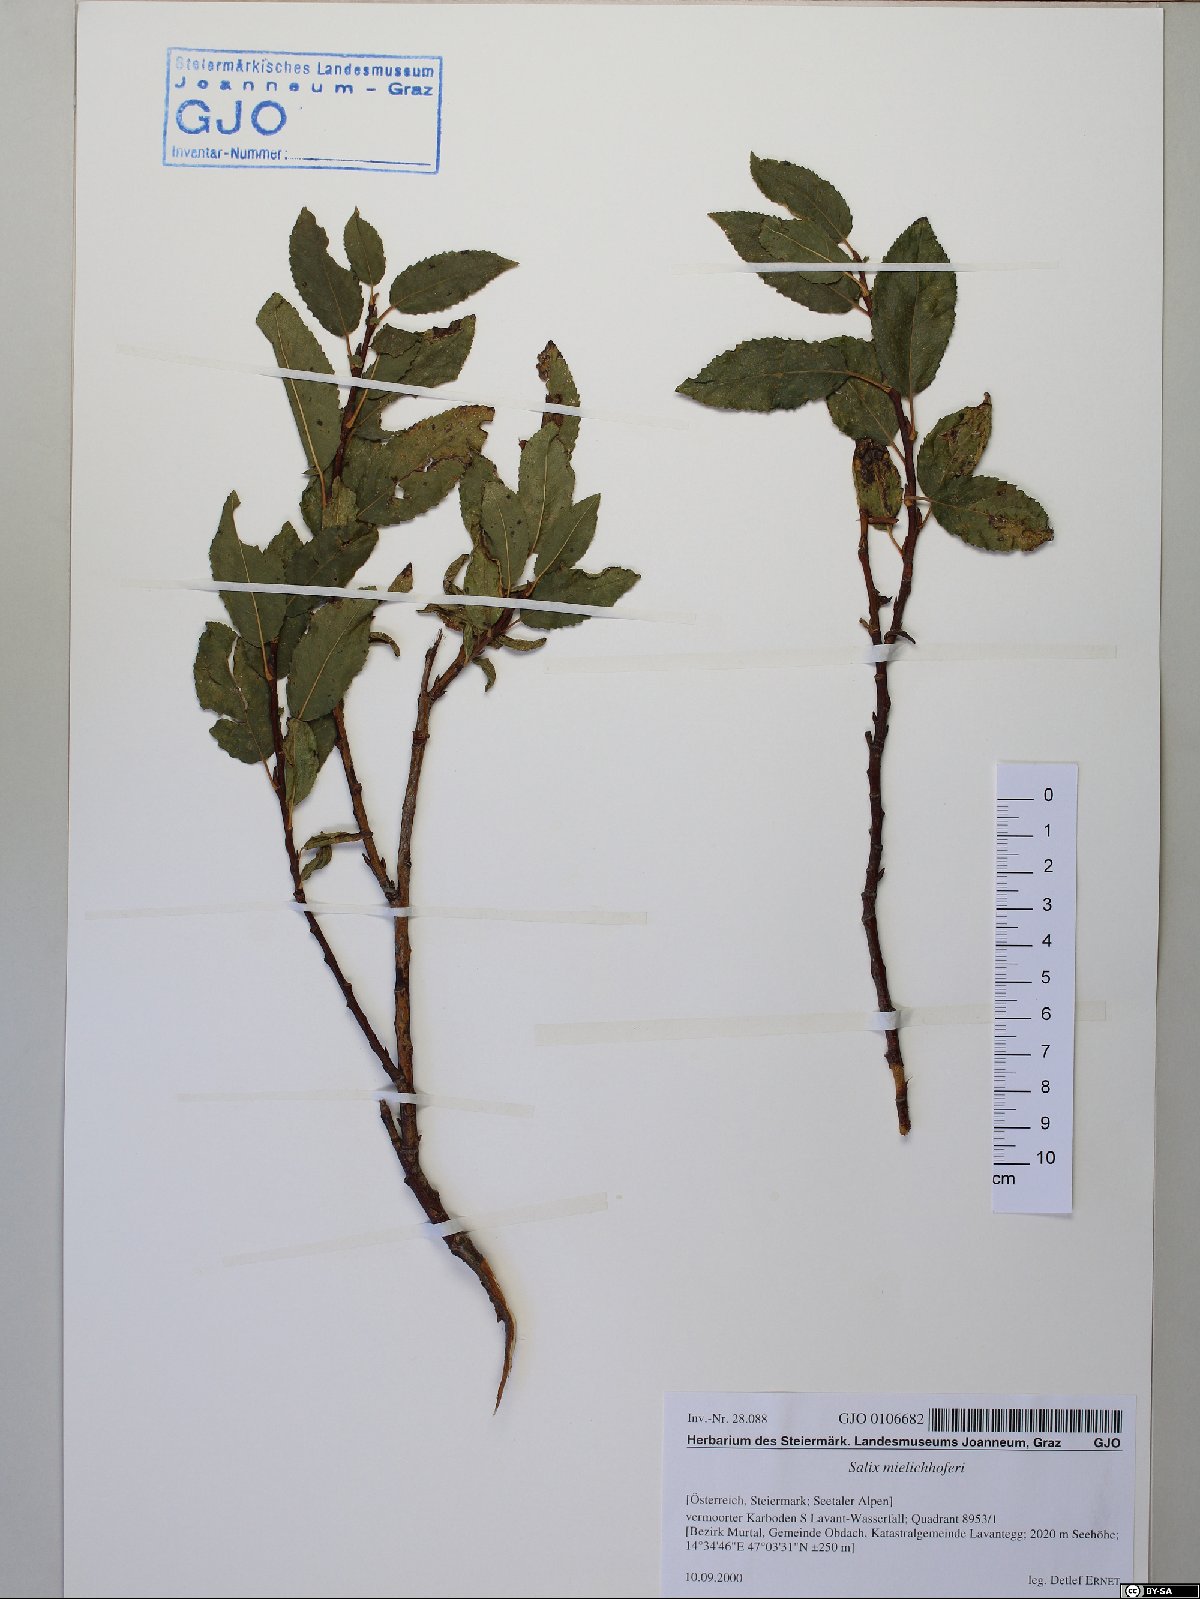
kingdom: Plantae
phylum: Tracheophyta
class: Magnoliopsida
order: Malpighiales
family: Salicaceae
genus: Salix
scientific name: Salix mielichhoferi
